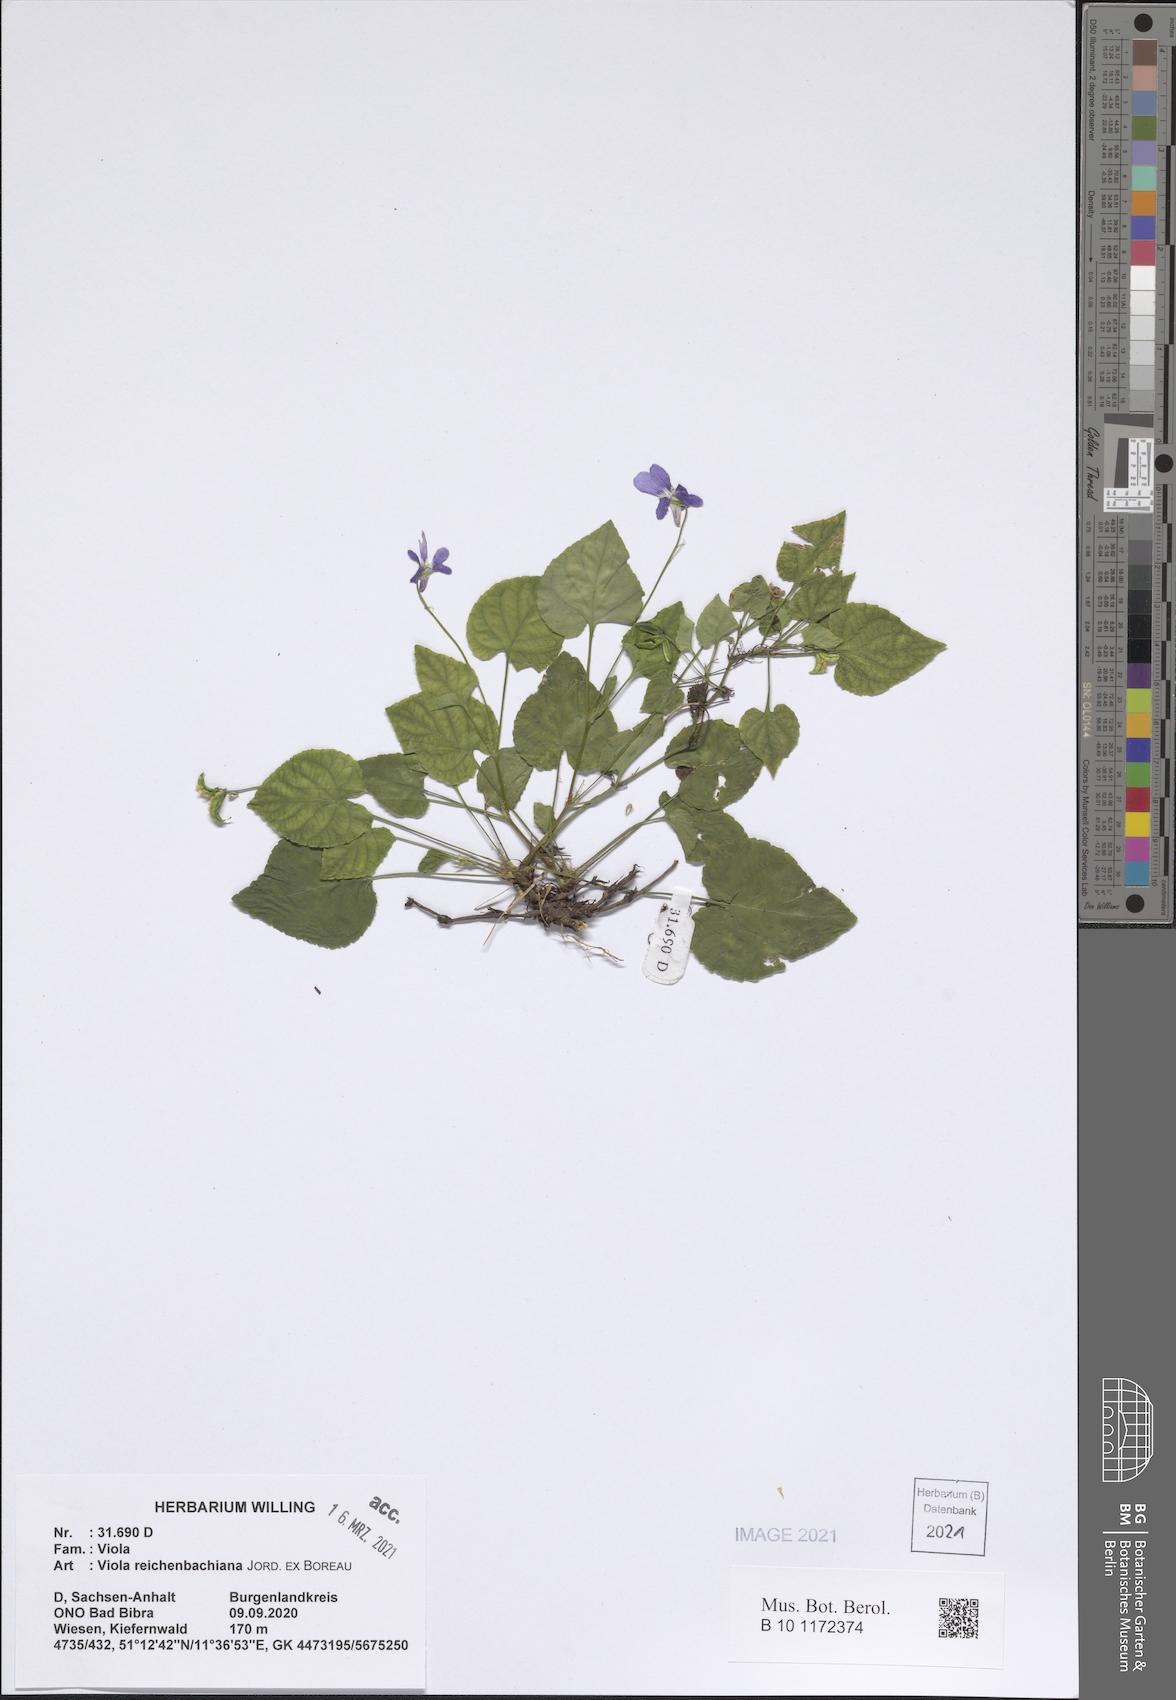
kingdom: Plantae
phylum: Tracheophyta
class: Magnoliopsida
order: Malpighiales
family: Violaceae
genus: Viola
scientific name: Viola reichenbachiana
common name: Early dog-violet
